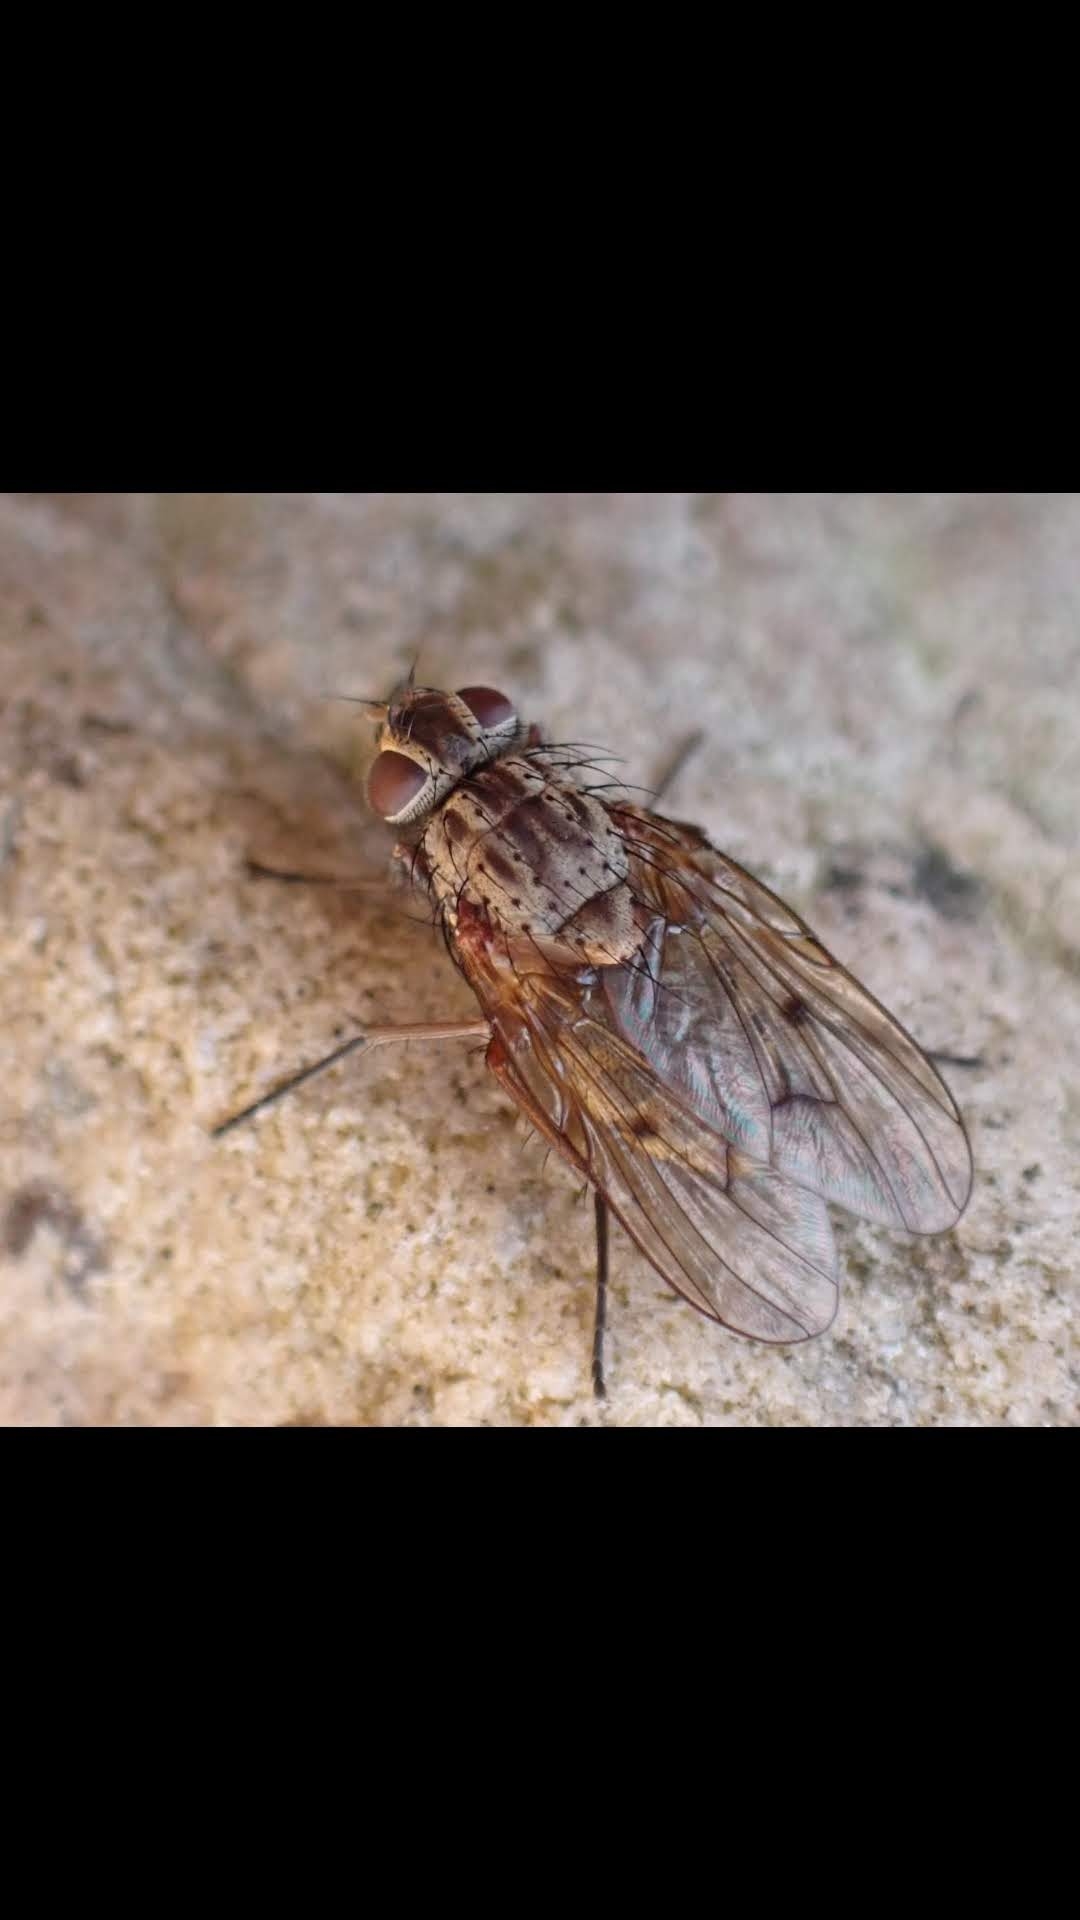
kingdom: Animalia
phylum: Arthropoda
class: Insecta
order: Diptera
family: Muscidae
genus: Phaonia
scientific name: Phaonia tuguriorum
